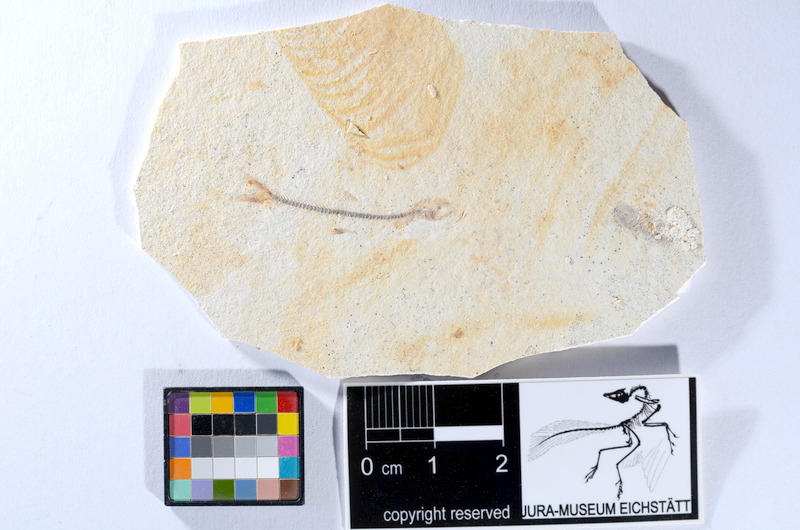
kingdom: Animalia
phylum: Chordata
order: Salmoniformes
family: Orthogonikleithridae
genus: Orthogonikleithrus
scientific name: Orthogonikleithrus hoelli
